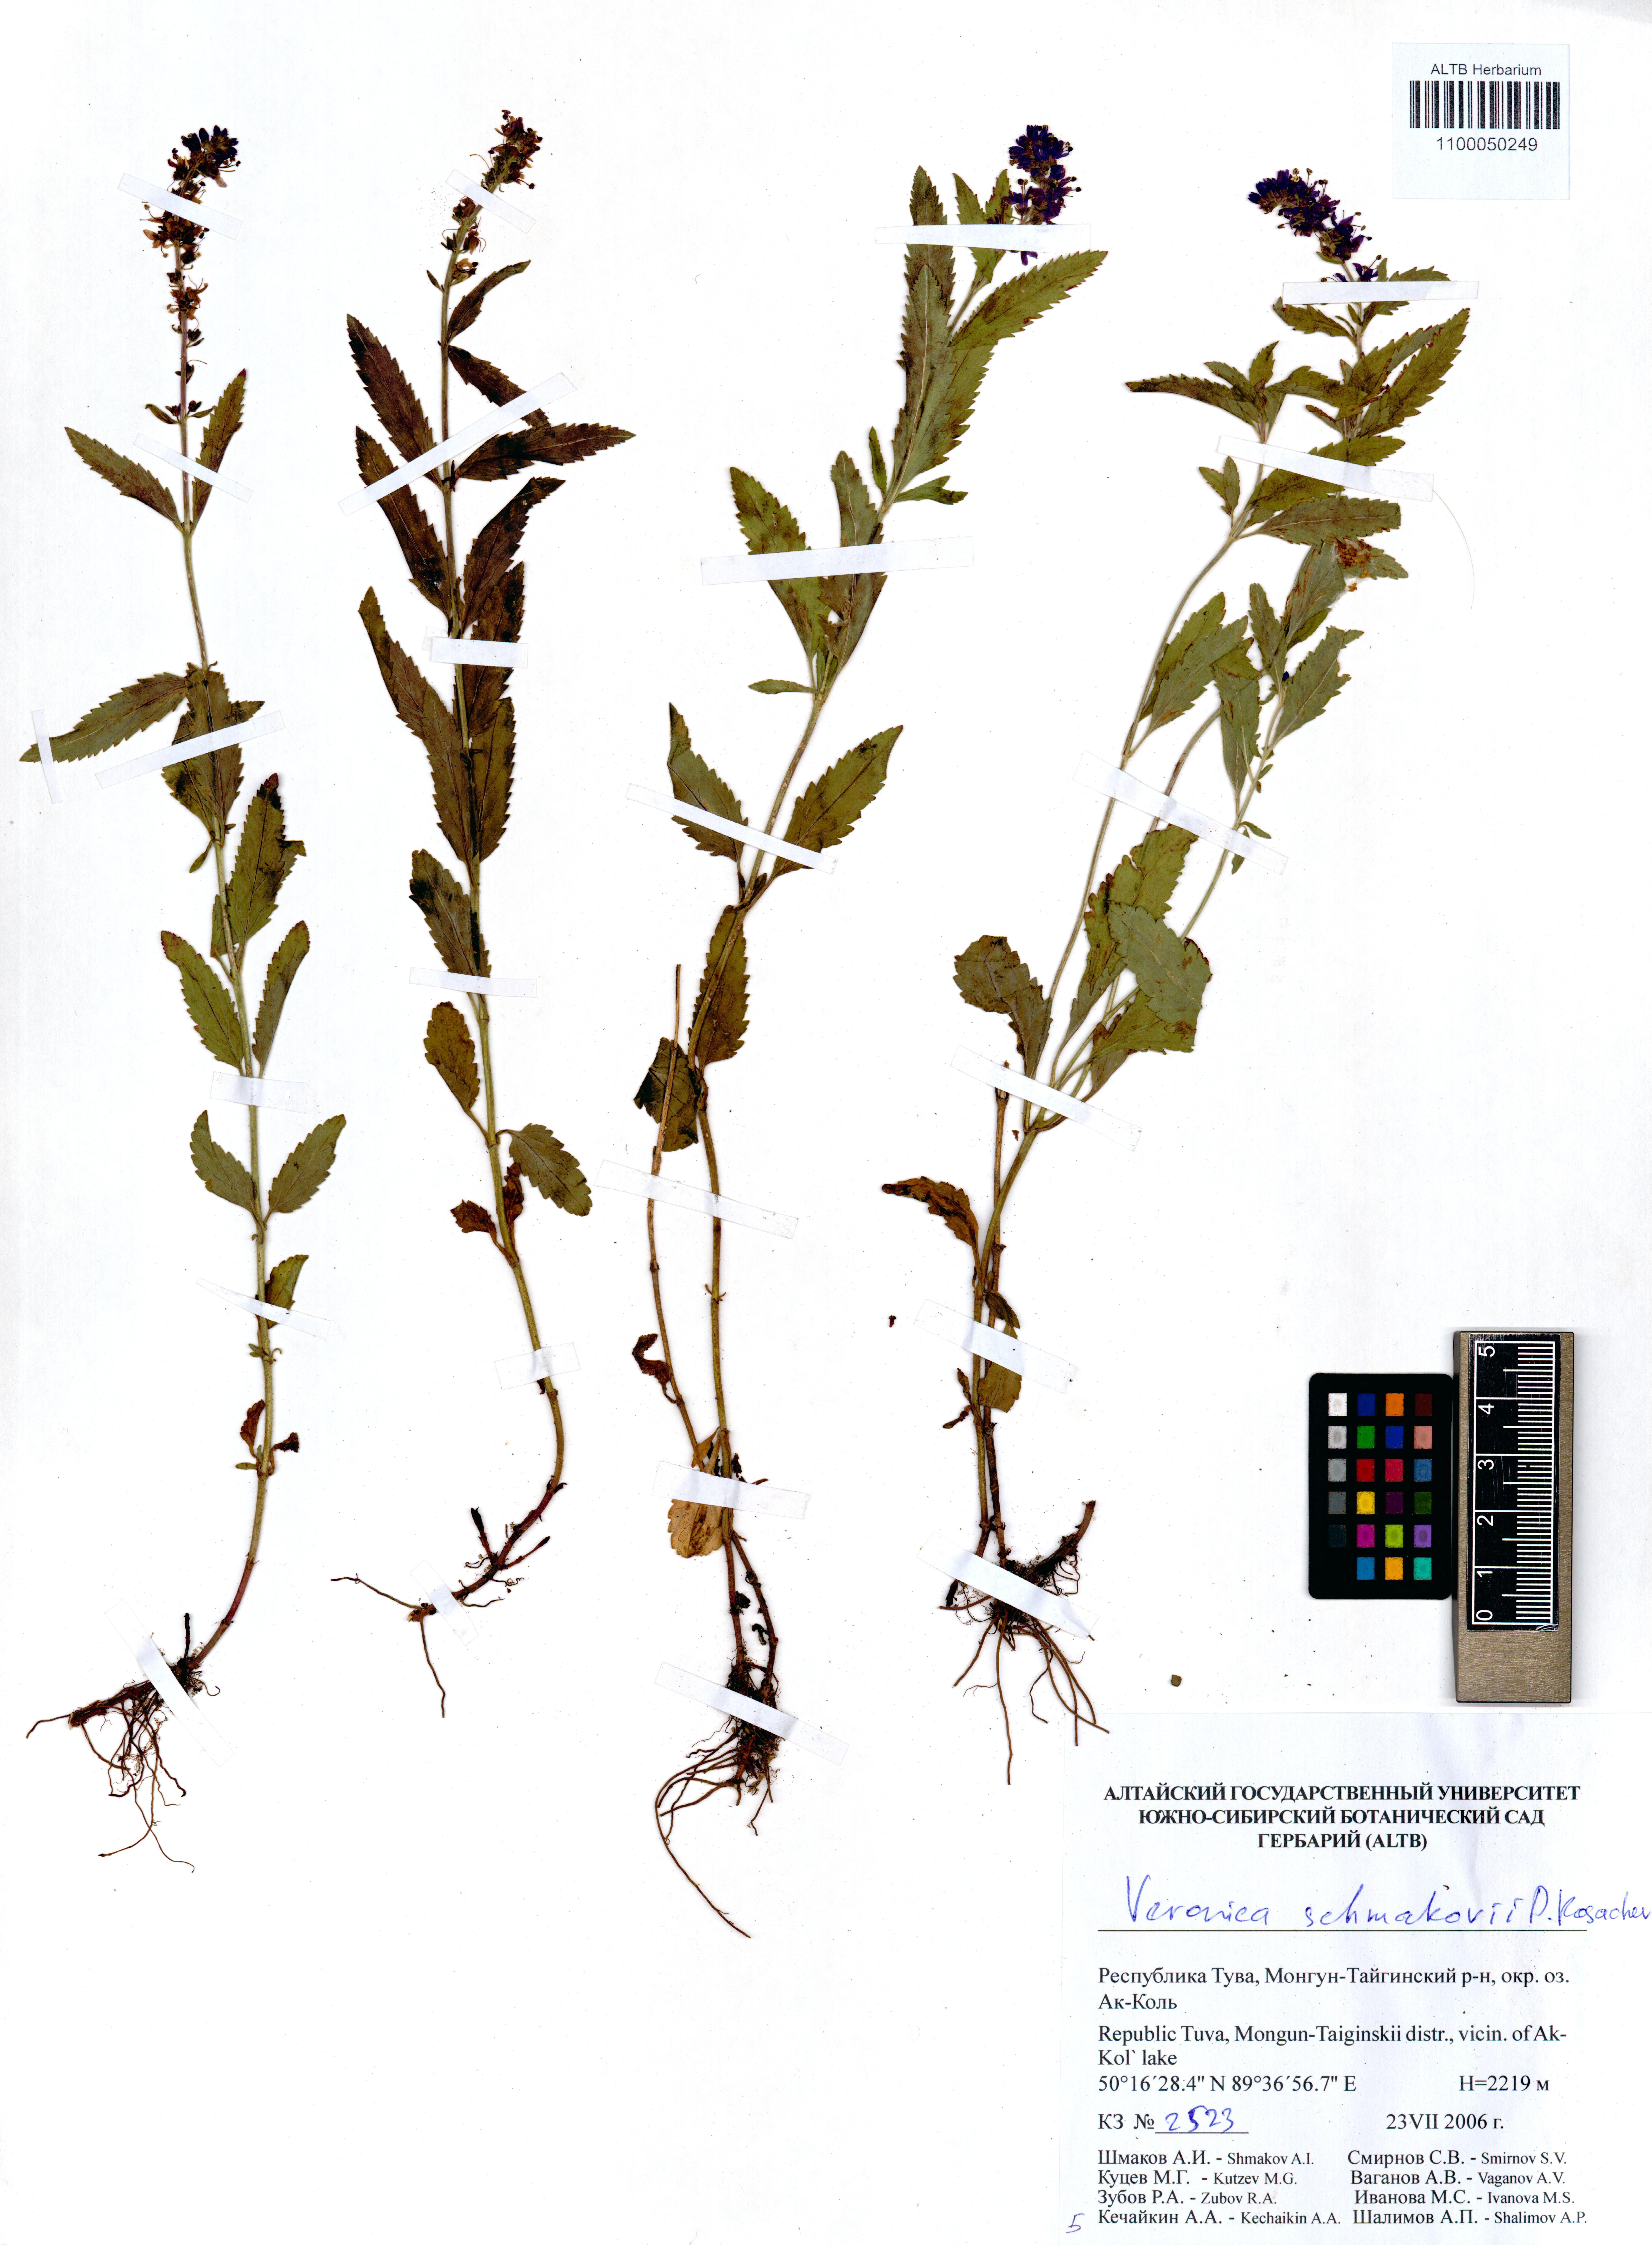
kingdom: Plantae
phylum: Tracheophyta
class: Magnoliopsida
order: Lamiales
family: Plantaginaceae
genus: Veronica
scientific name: Veronica schmakovii
